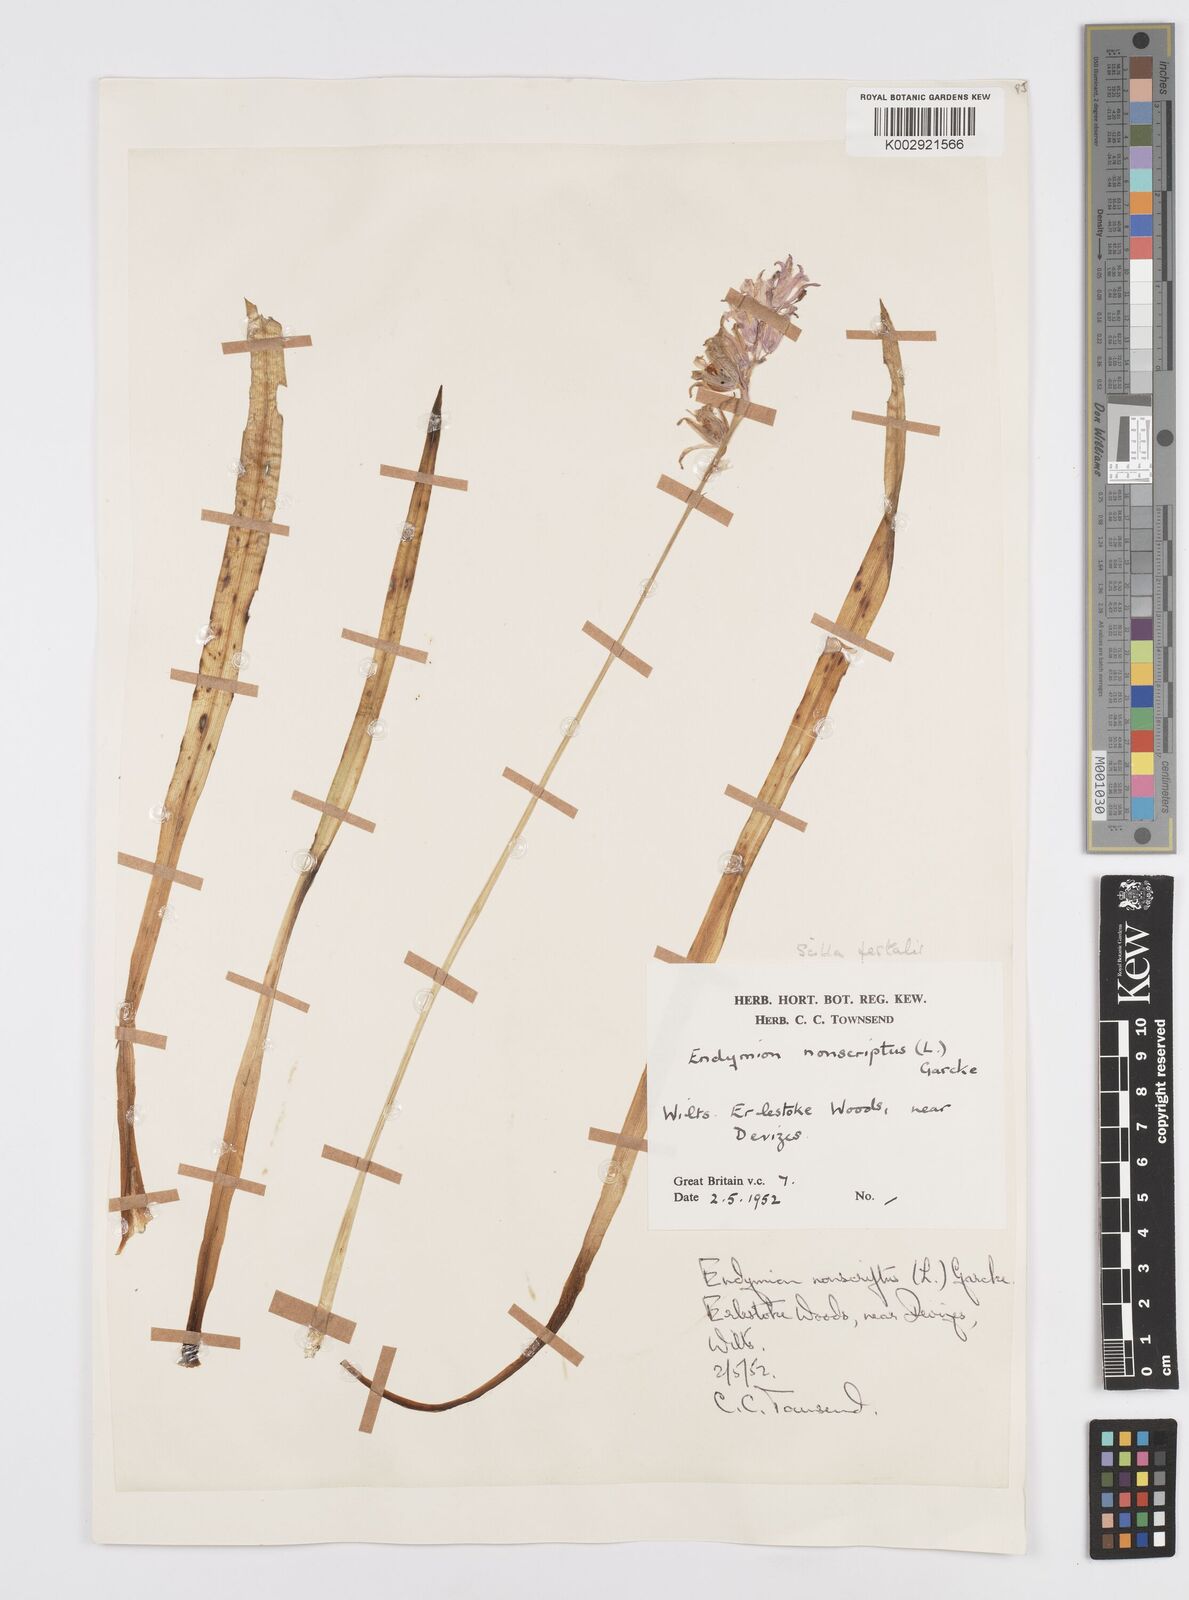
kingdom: Plantae
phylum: Tracheophyta
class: Liliopsida
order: Asparagales
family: Asparagaceae
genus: Hyacinthoides
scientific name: Hyacinthoides non-scripta
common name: Bluebell
